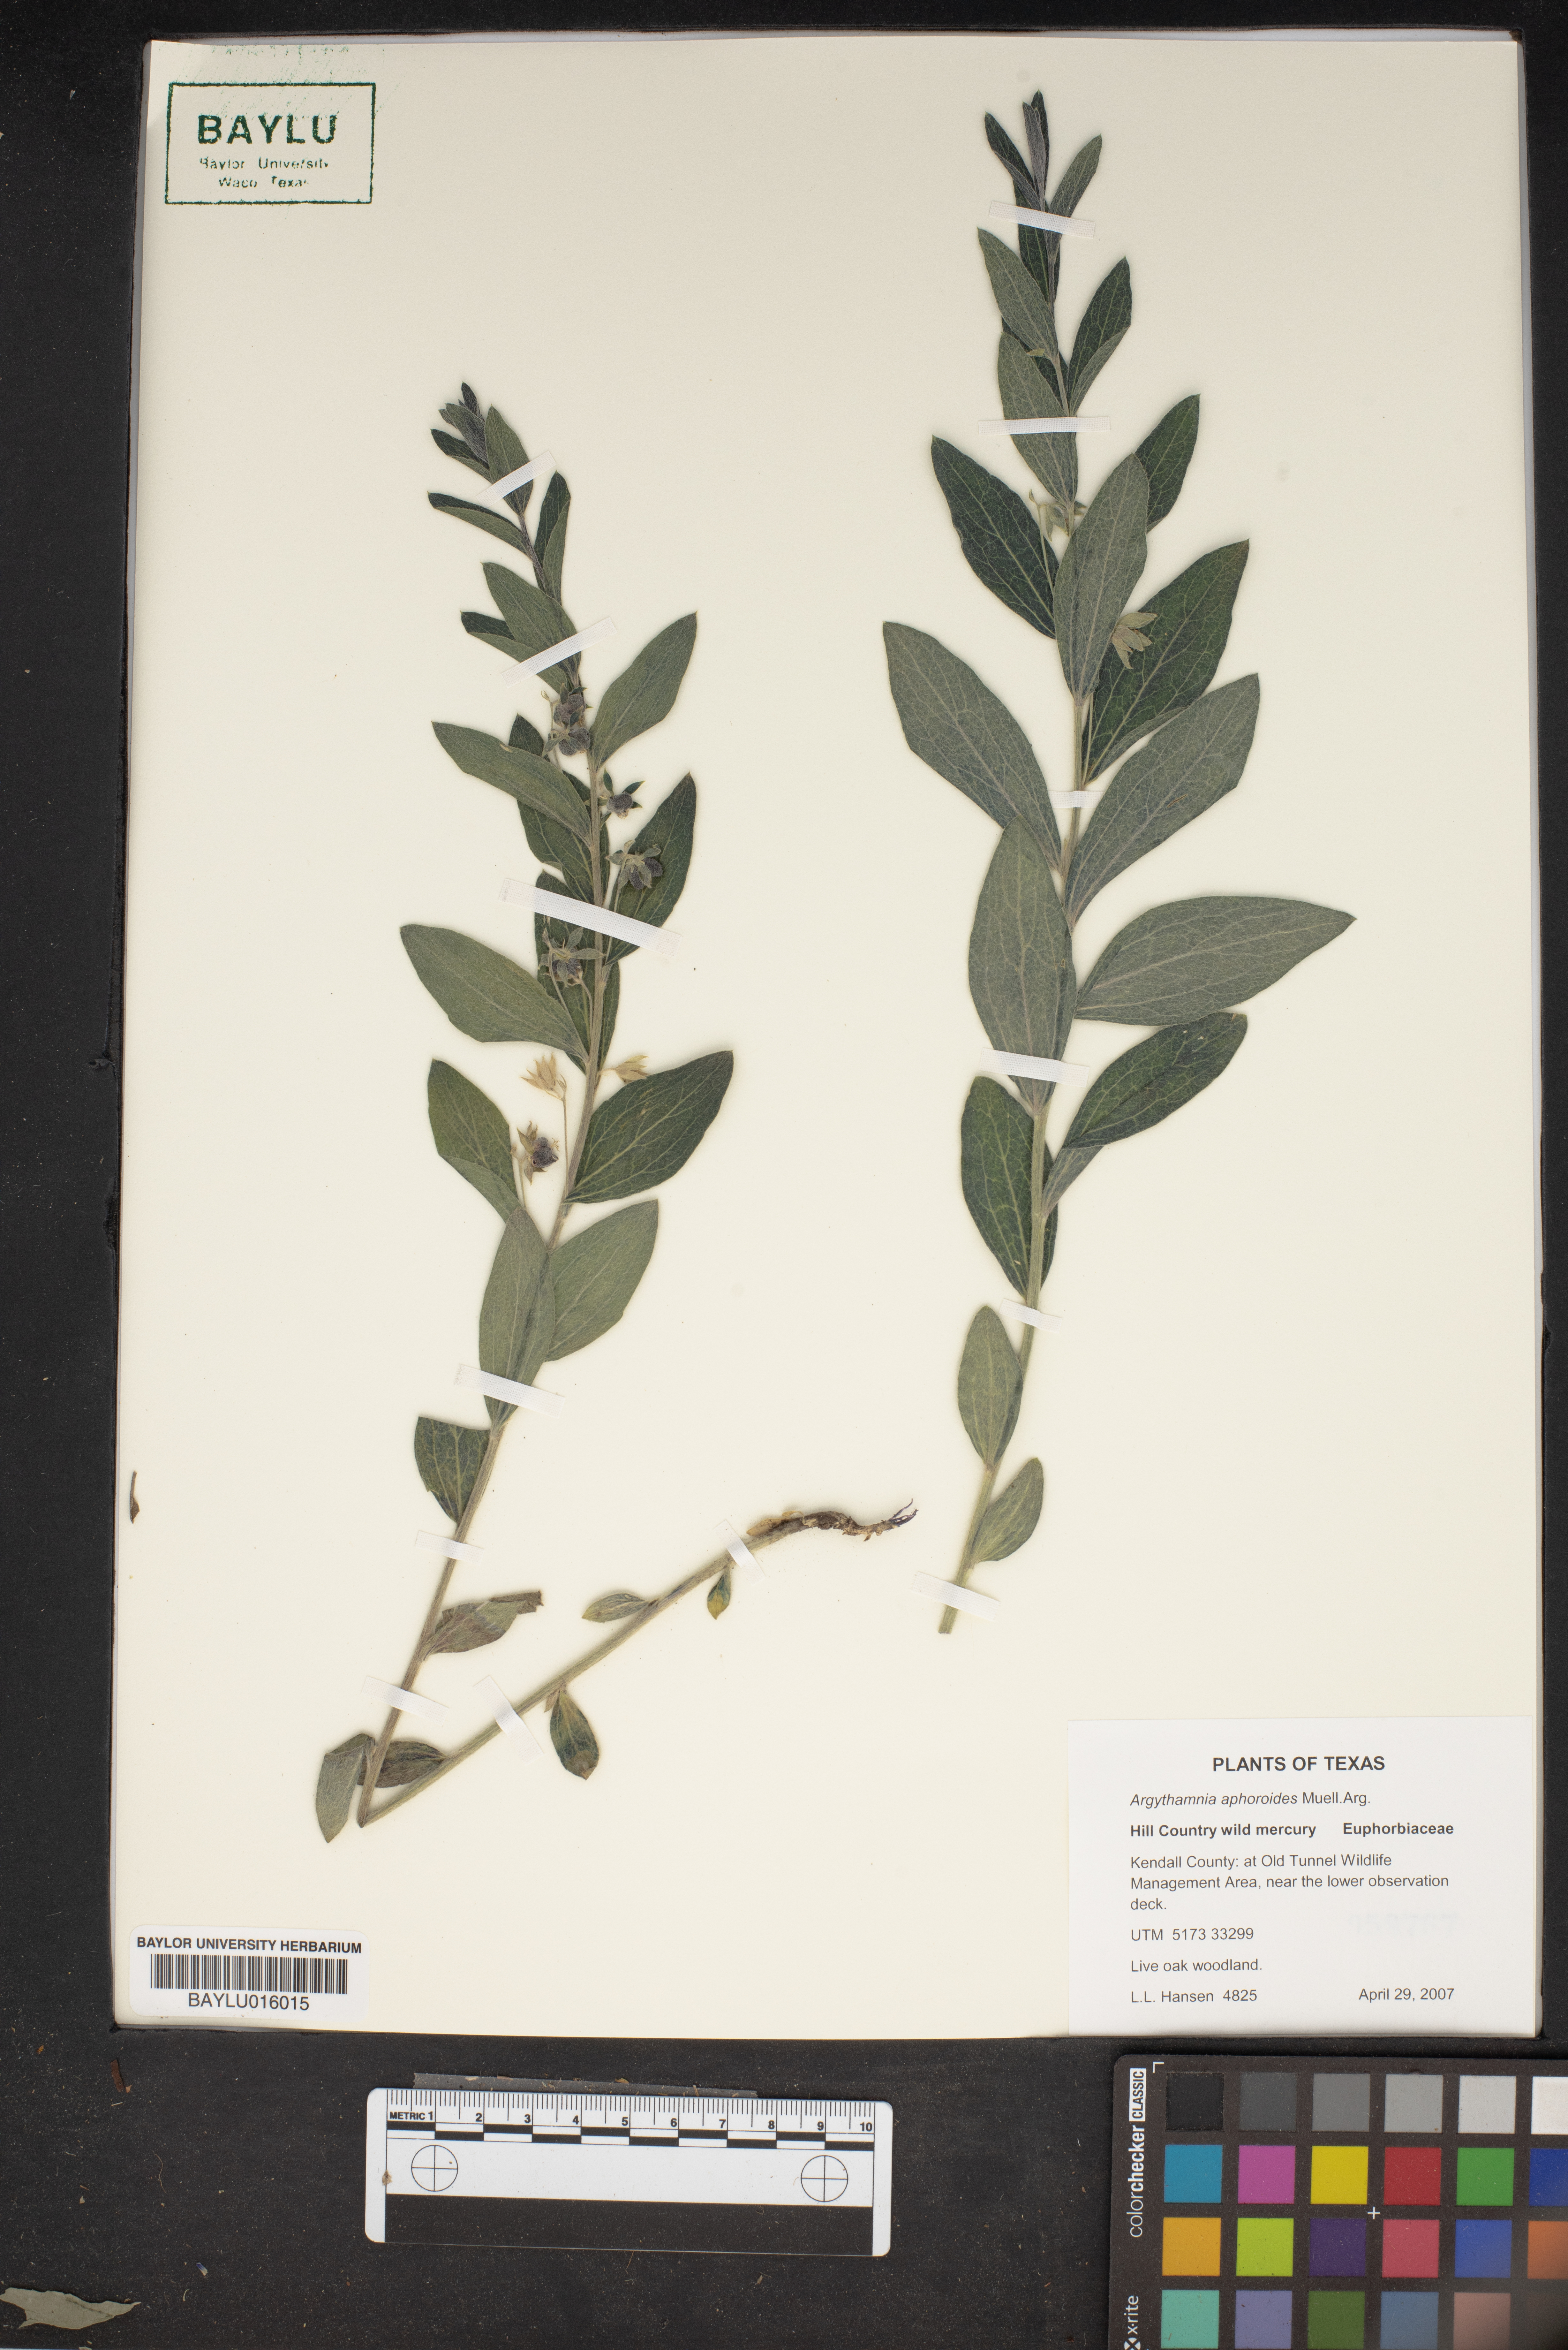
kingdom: Plantae
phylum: Tracheophyta
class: Magnoliopsida
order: Malpighiales
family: Euphorbiaceae
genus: Ditaxis
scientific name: Ditaxis aphoroides
